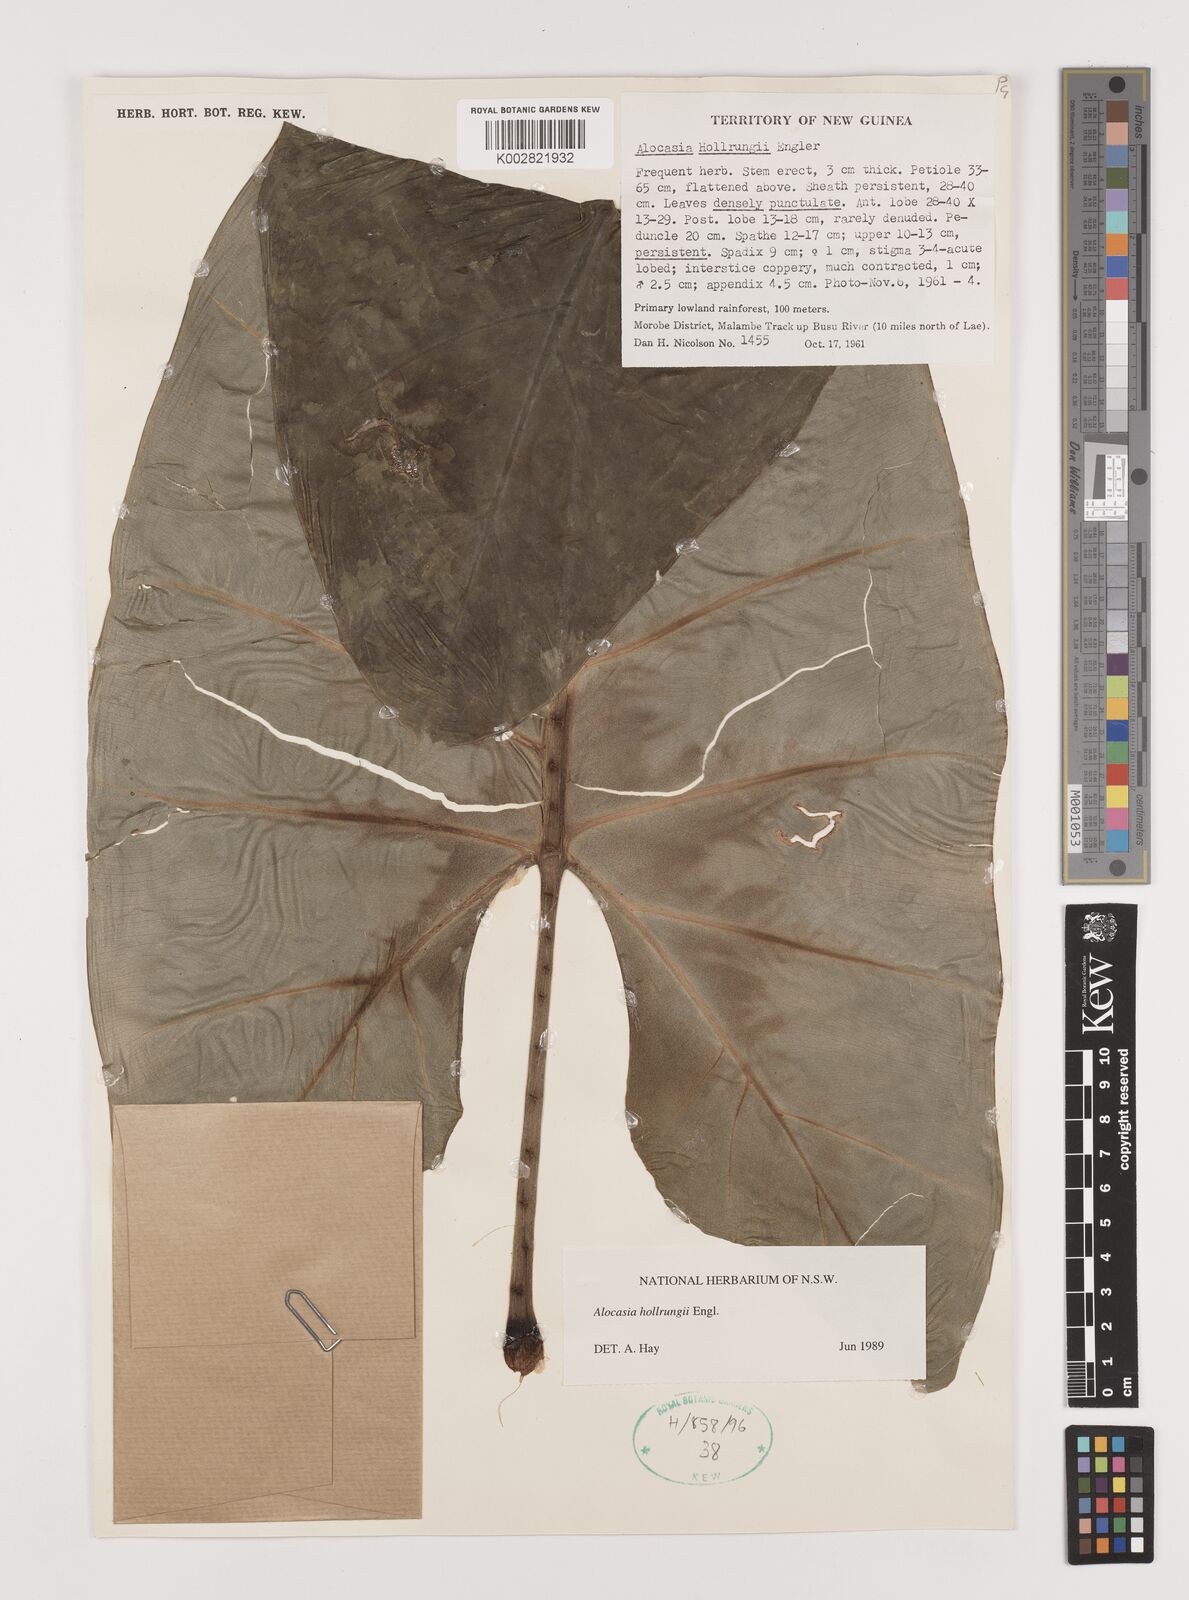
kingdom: Plantae
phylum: Tracheophyta
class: Liliopsida
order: Alismatales
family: Araceae
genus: Alocasia
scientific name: Alocasia hollrungii
